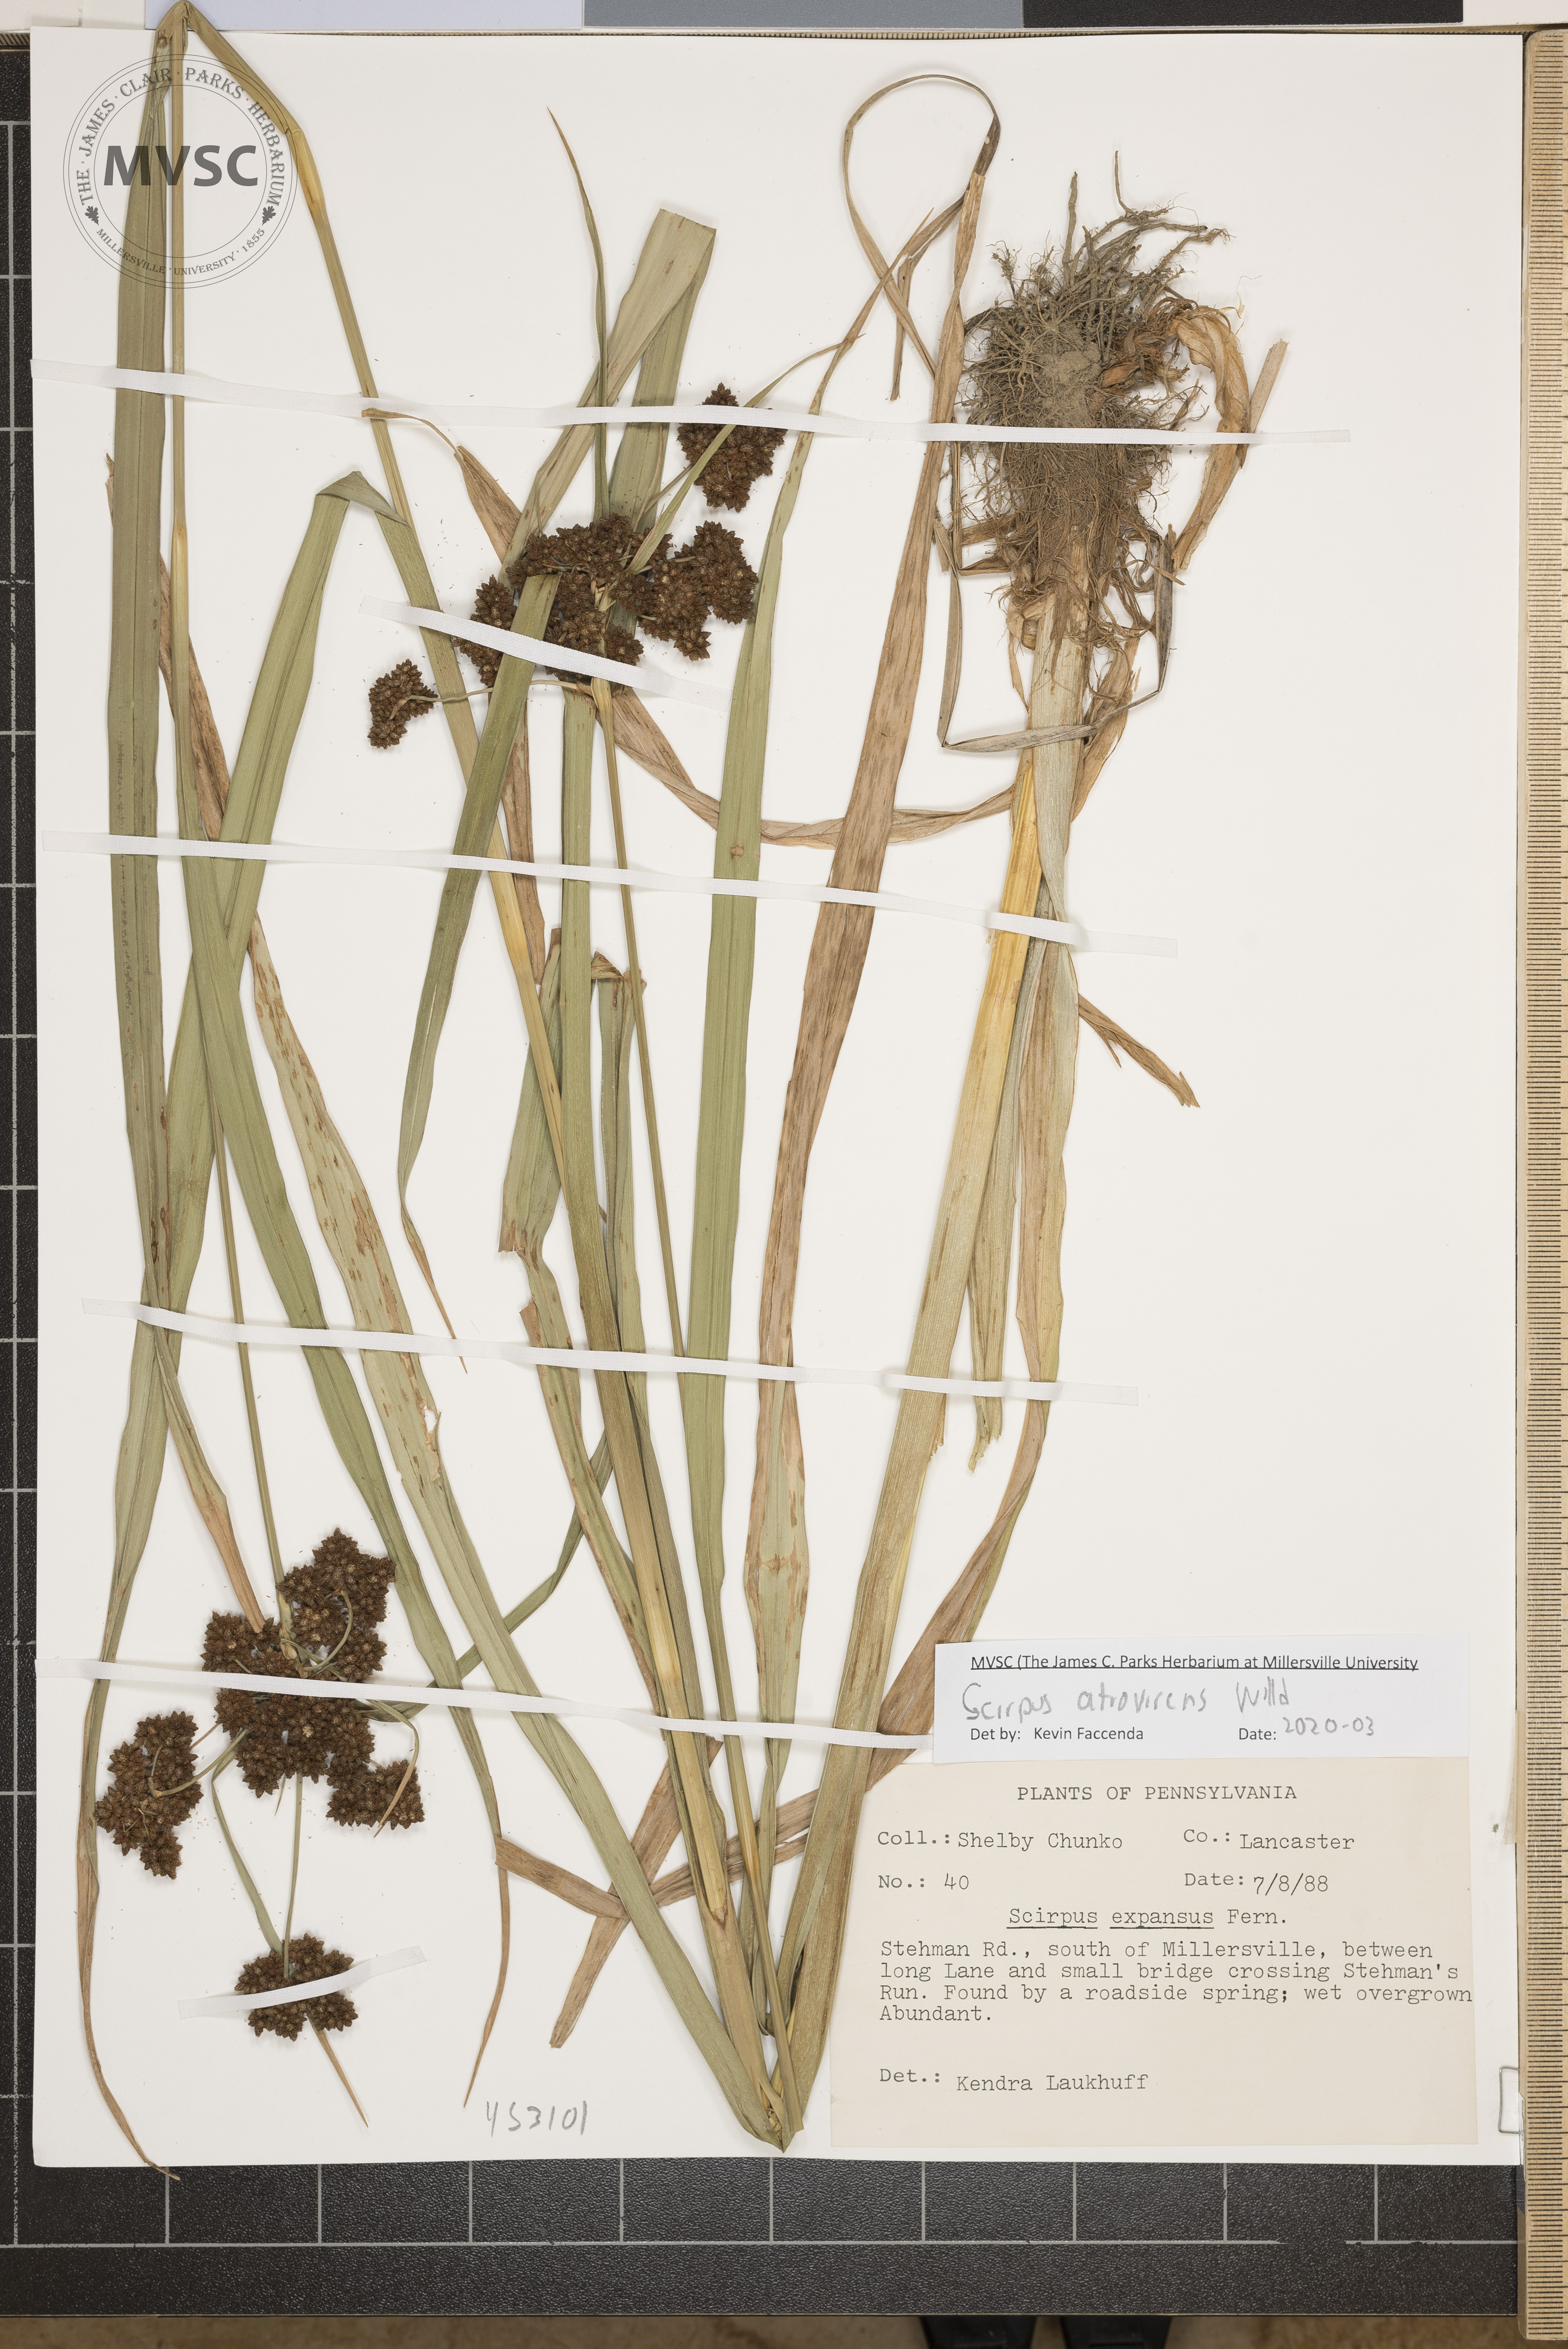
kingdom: Plantae
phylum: Tracheophyta
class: Liliopsida
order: Poales
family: Cyperaceae
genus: Scirpus
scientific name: Scirpus atrovirens
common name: Black bulrush
